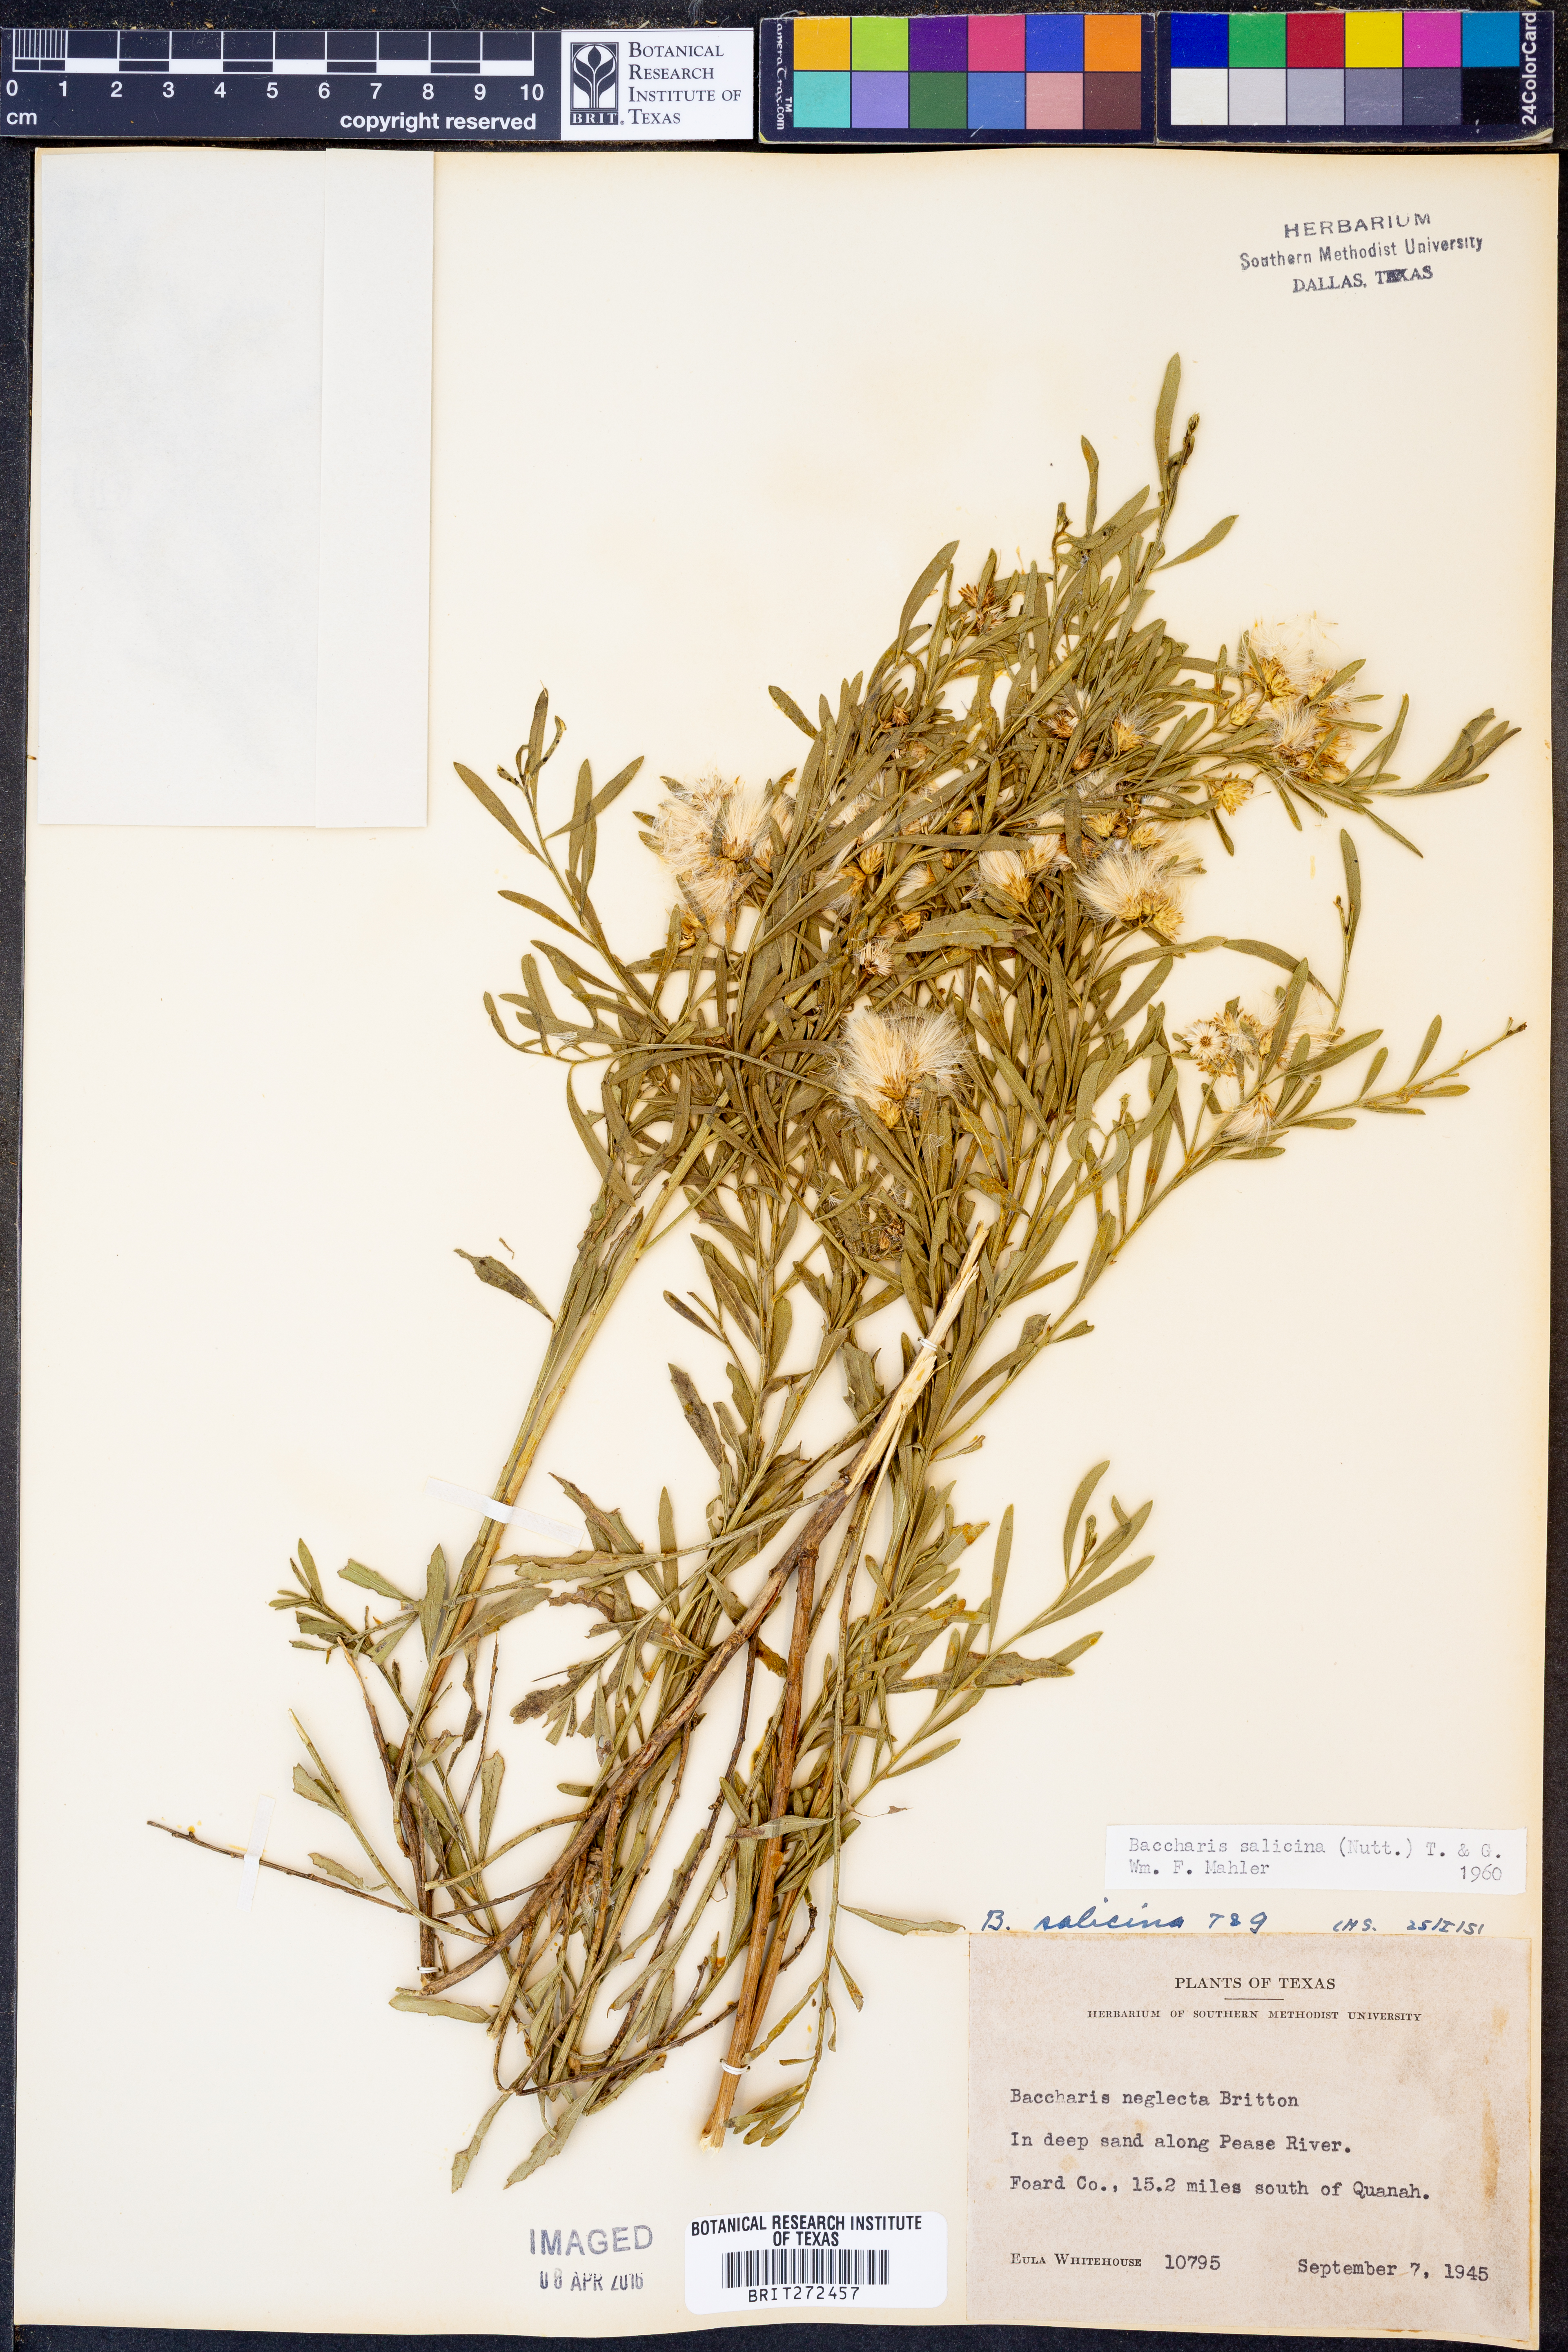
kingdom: Plantae
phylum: Tracheophyta
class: Magnoliopsida
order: Asterales
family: Asteraceae
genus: Baccharis
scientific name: Baccharis salicina
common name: Willow baccharis
